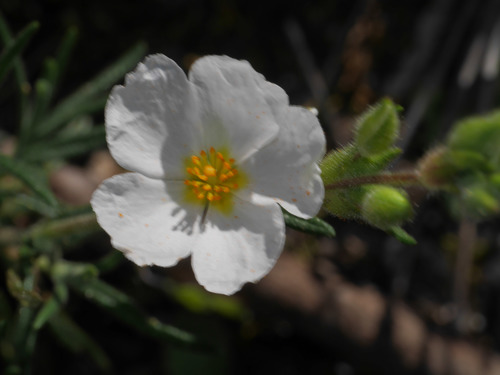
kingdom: Plantae
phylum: Tracheophyta
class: Magnoliopsida
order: Malvales
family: Cistaceae
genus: Halimium
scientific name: Halimium umbellatum
